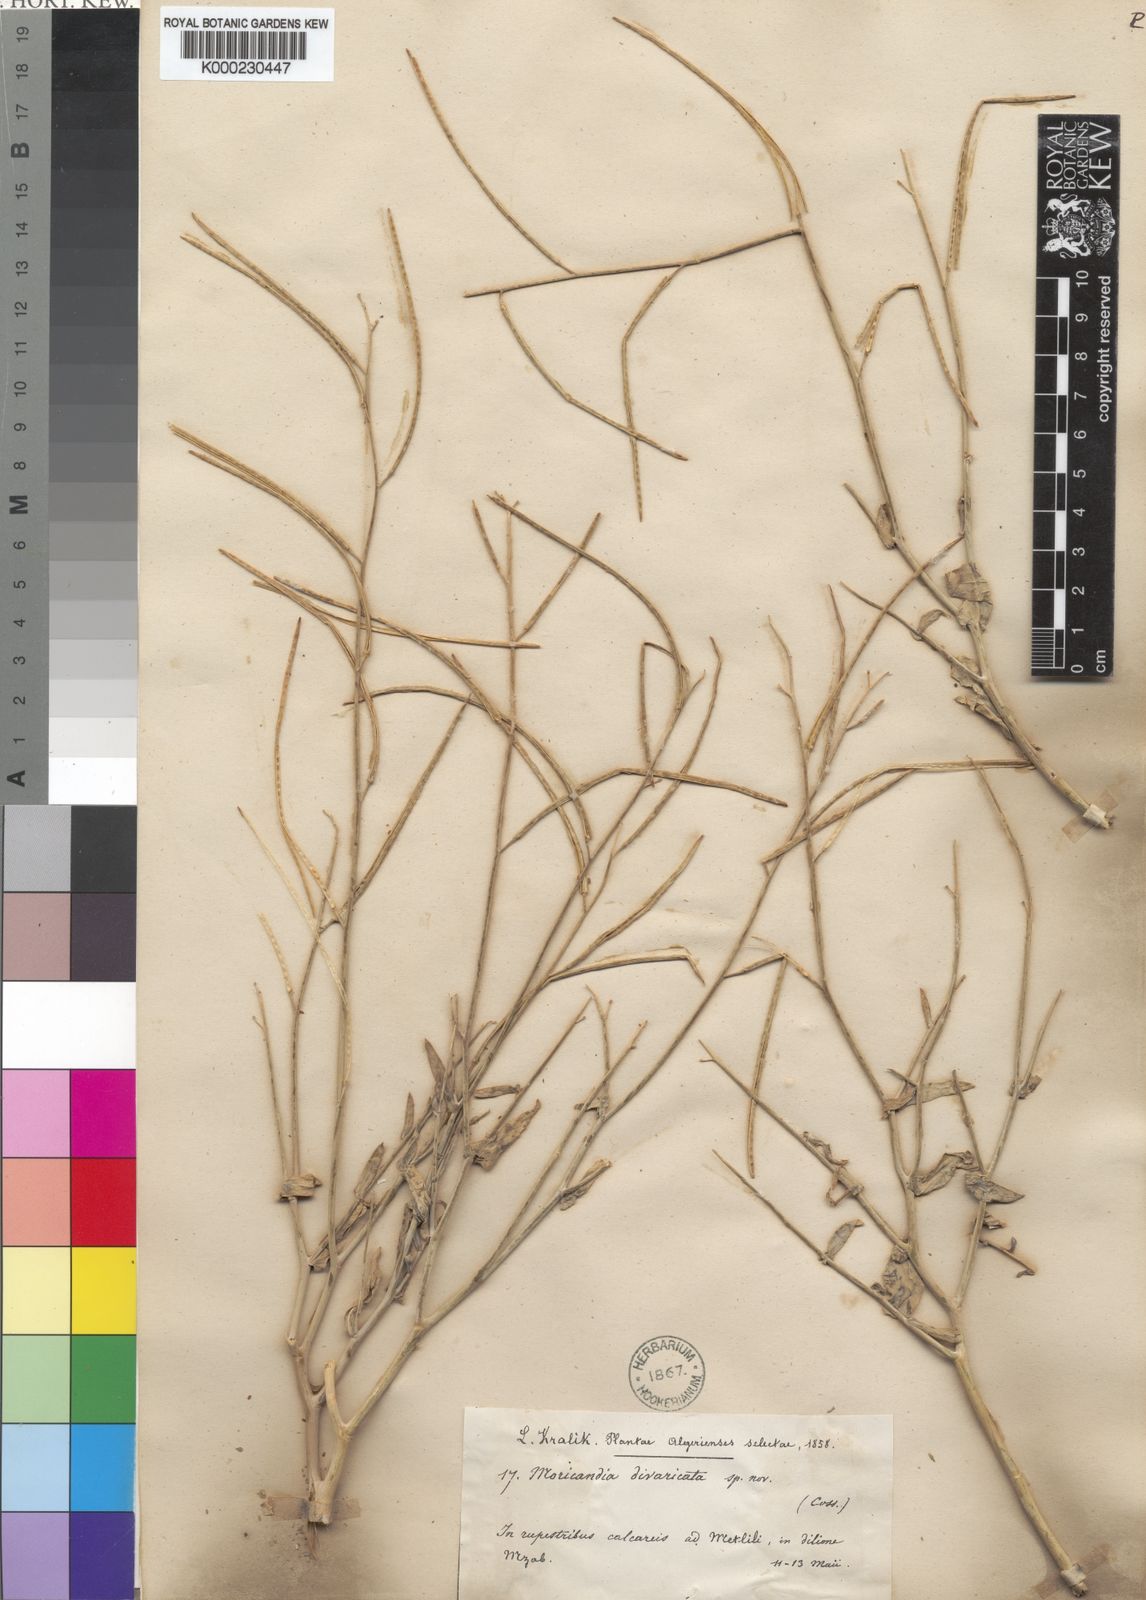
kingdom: Plantae
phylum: Tracheophyta
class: Magnoliopsida
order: Brassicales
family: Brassicaceae
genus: Moricandia
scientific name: Moricandia arvensis
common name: Purple mistress
